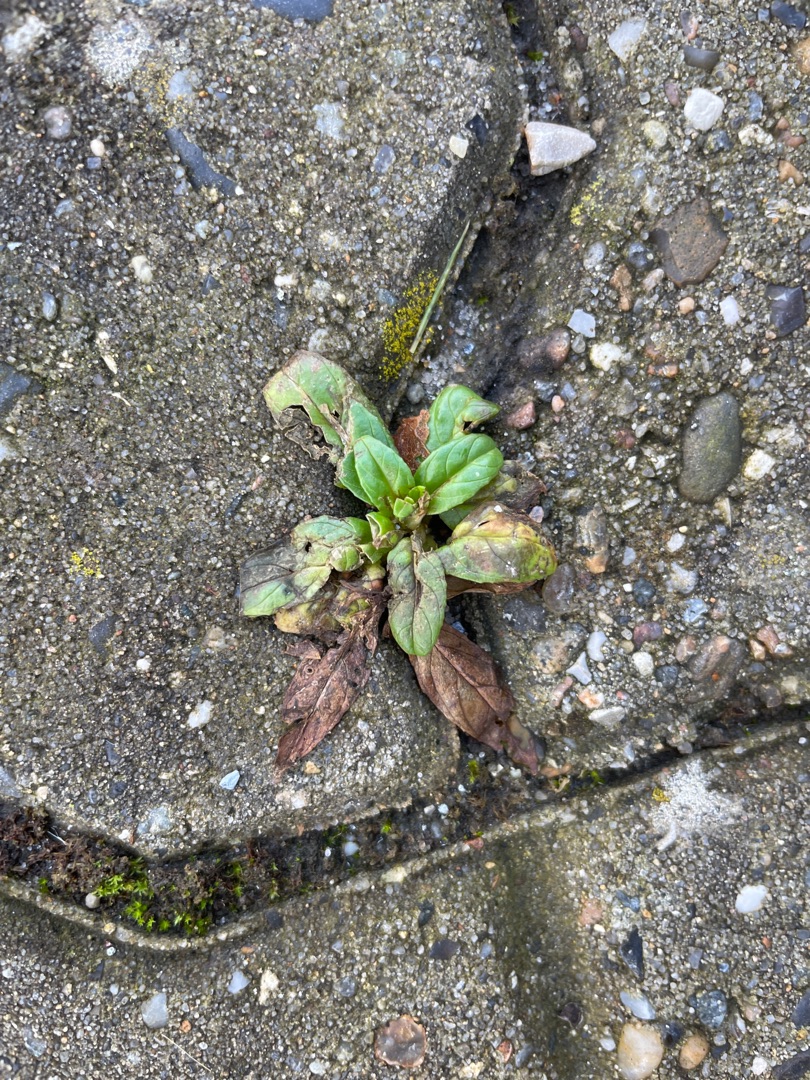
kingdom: Plantae
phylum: Tracheophyta
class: Magnoliopsida
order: Myrtales
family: Onagraceae
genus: Epilobium
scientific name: Epilobium
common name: Dueurtslægten
